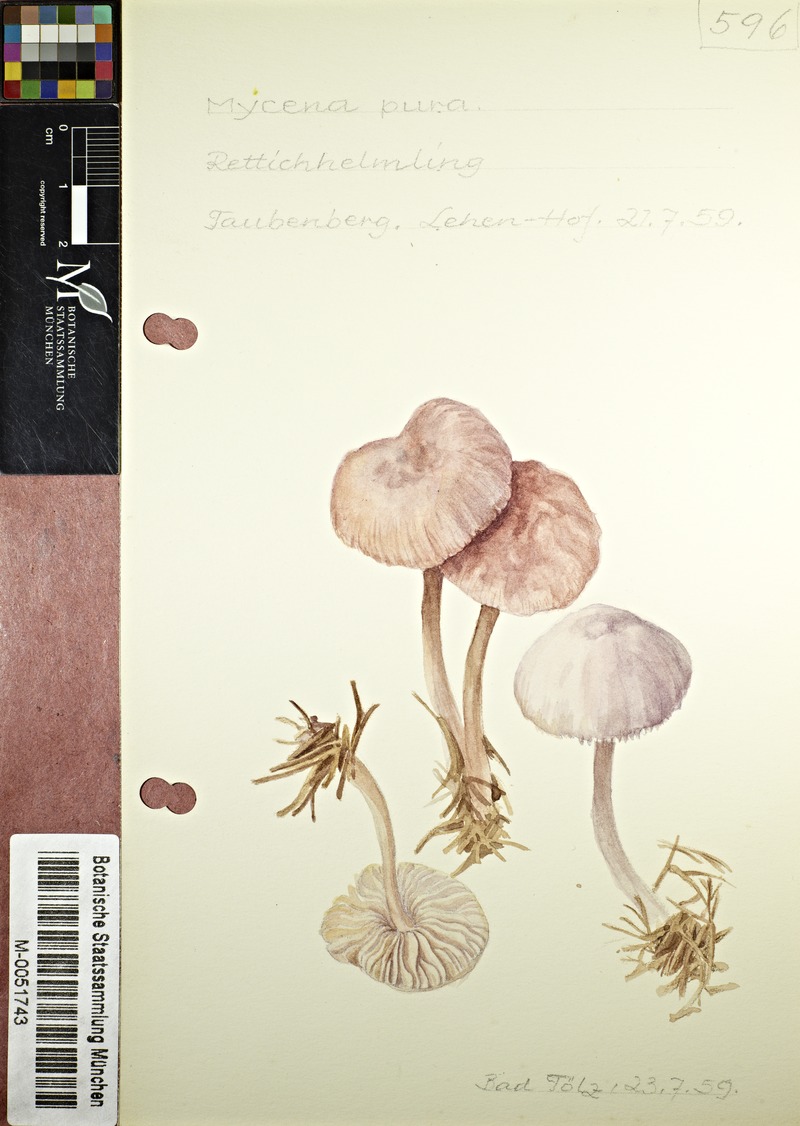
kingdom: Fungi
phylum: Basidiomycota
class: Agaricomycetes
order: Agaricales
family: Mycenaceae
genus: Mycena
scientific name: Mycena pura
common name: Lilac bonnet
